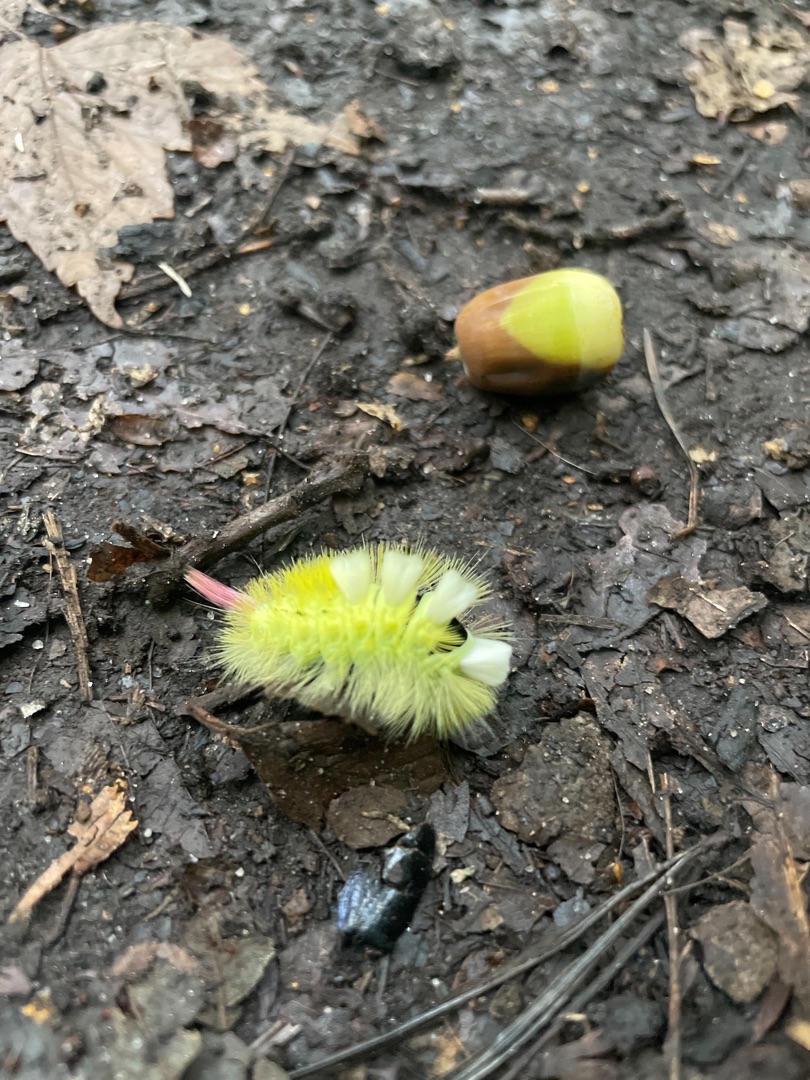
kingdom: Animalia
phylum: Arthropoda
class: Insecta
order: Lepidoptera
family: Erebidae
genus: Calliteara
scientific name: Calliteara pudibunda
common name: Bøgenonne
